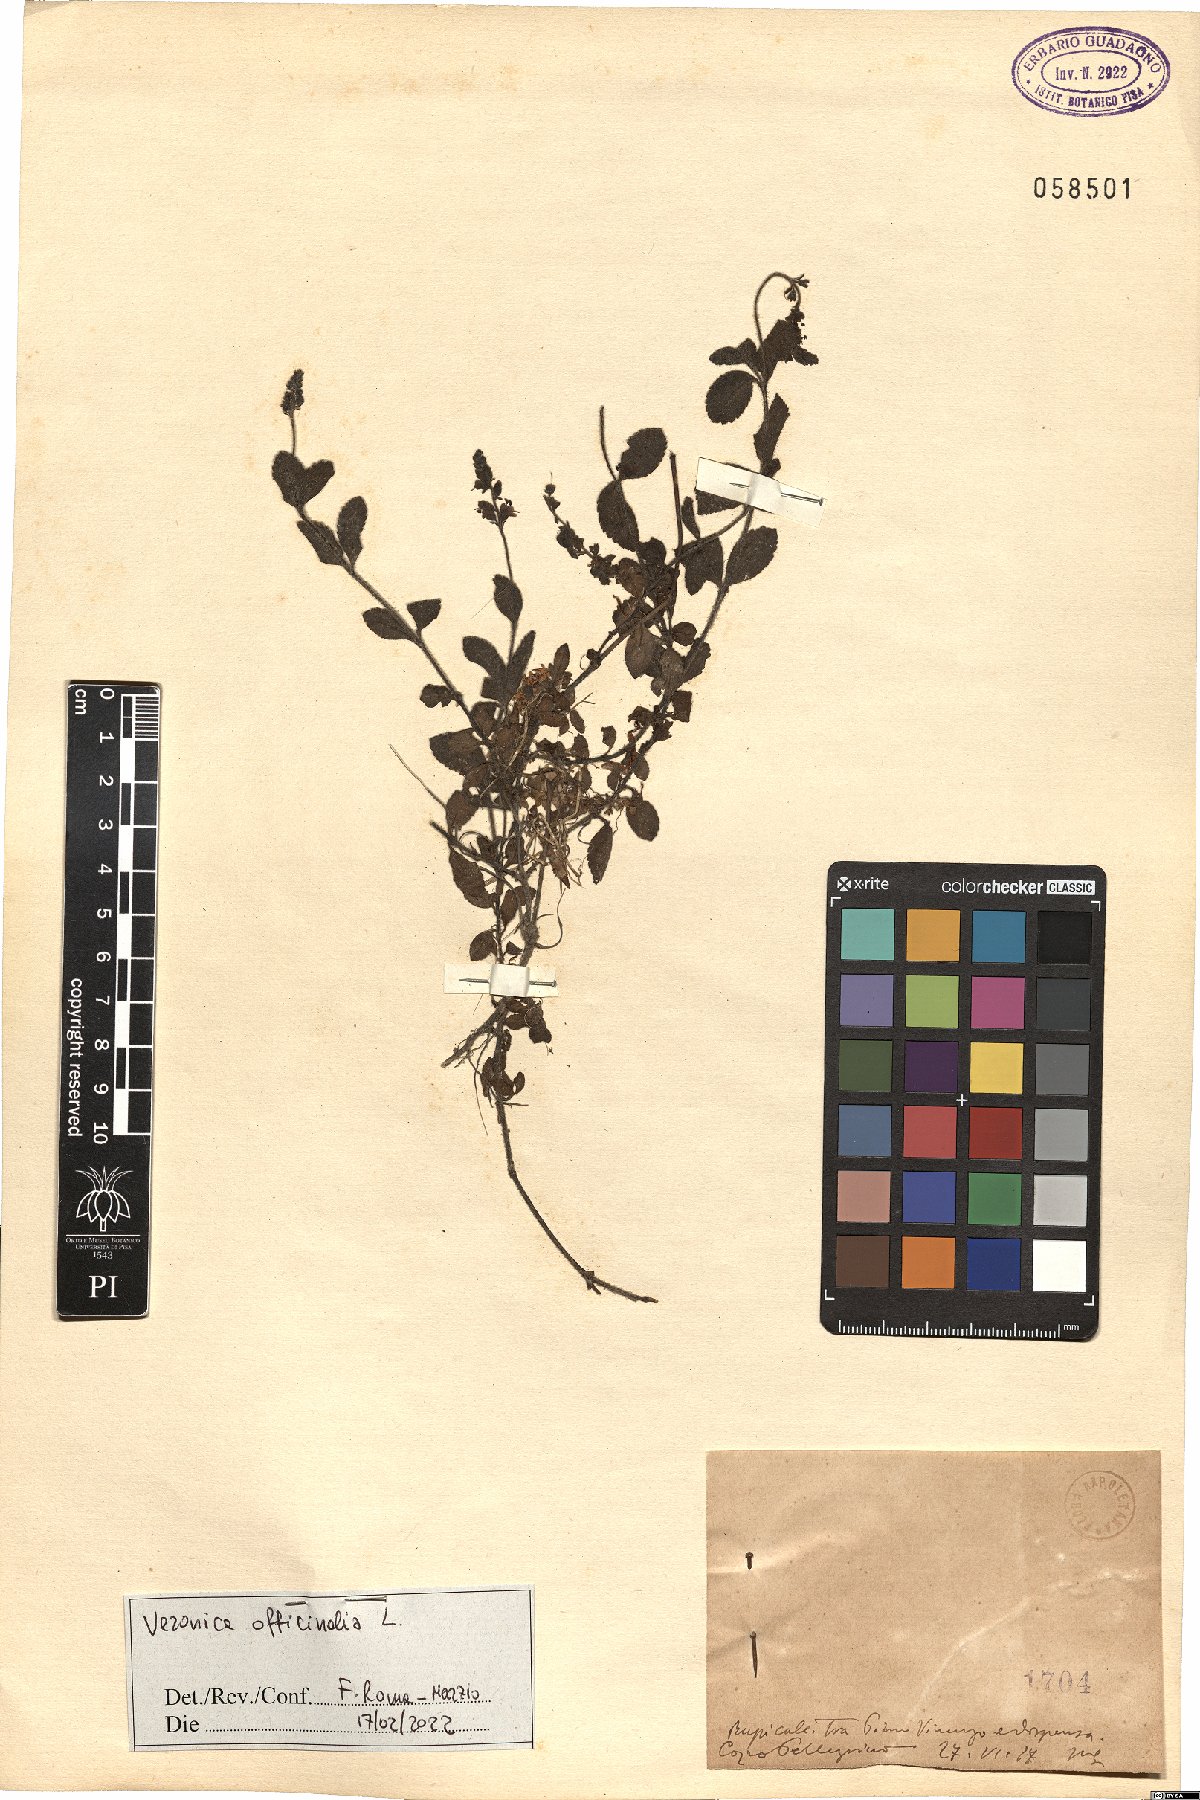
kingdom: Plantae
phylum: Tracheophyta
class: Magnoliopsida
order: Lamiales
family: Plantaginaceae
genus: Veronica
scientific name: Veronica officinalis
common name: Common speedwell
